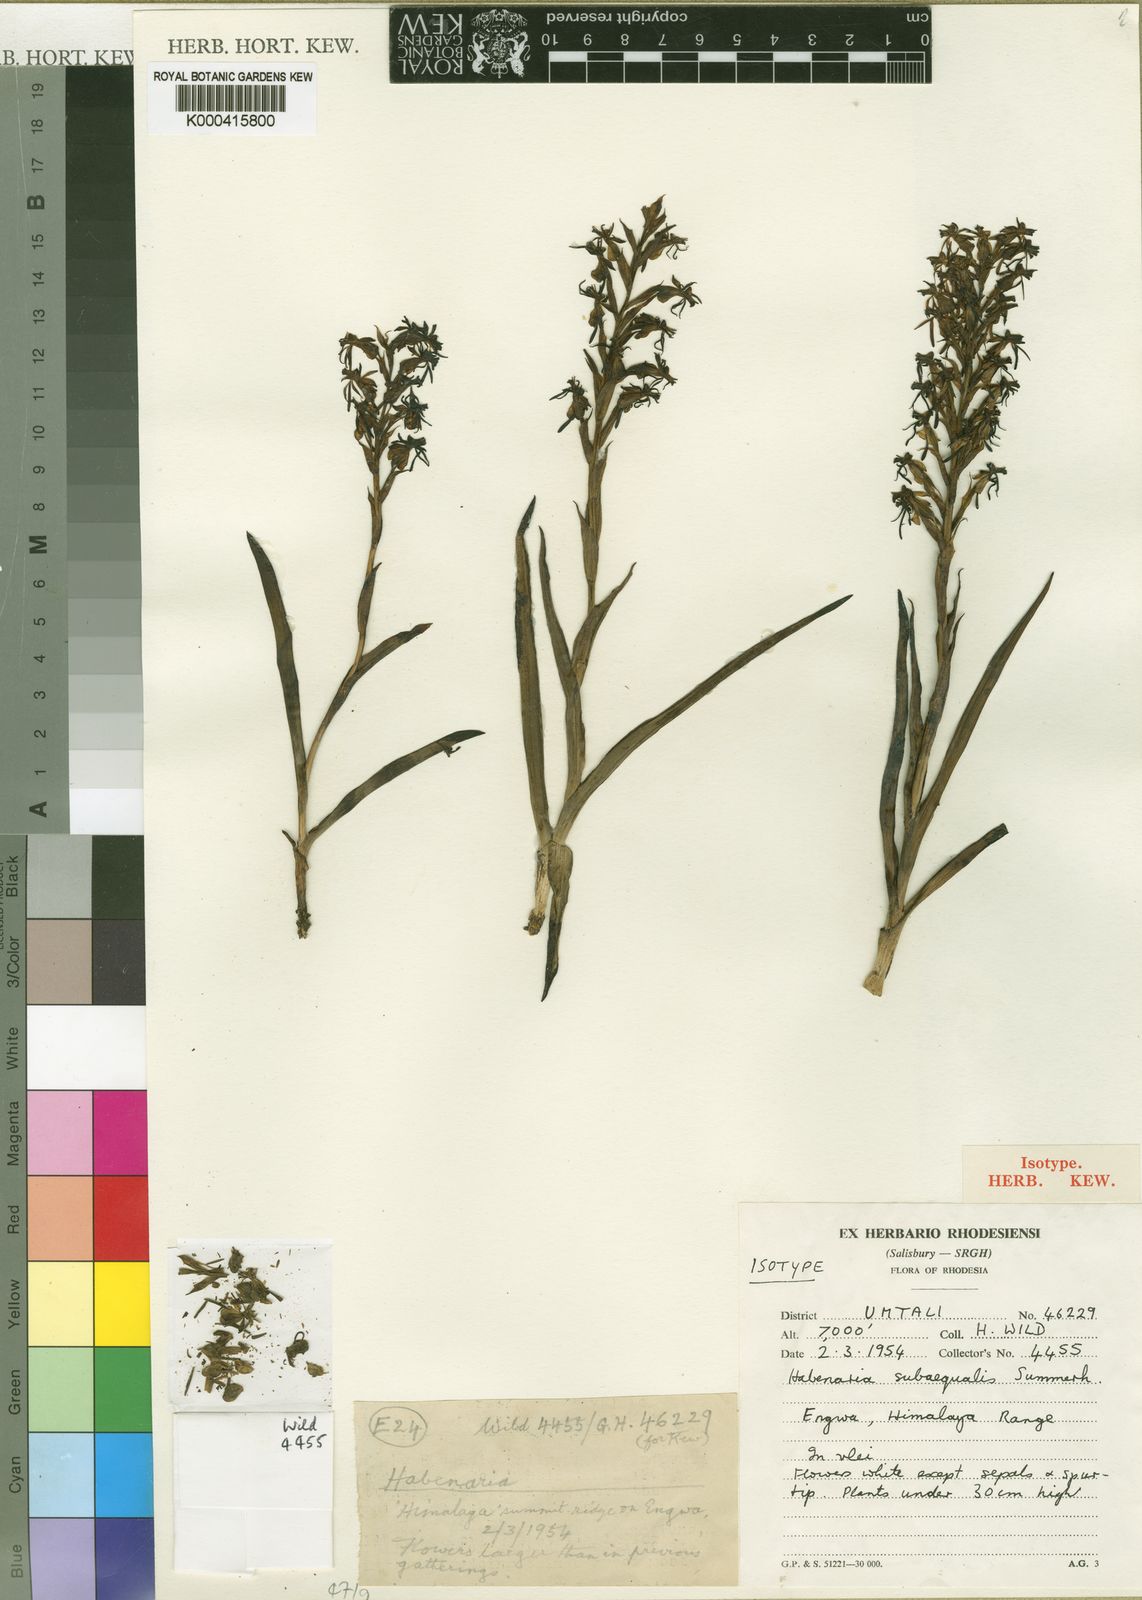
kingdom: Plantae
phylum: Tracheophyta
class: Liliopsida
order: Asparagales
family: Orchidaceae
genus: Habenaria
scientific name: Habenaria subaequalis
